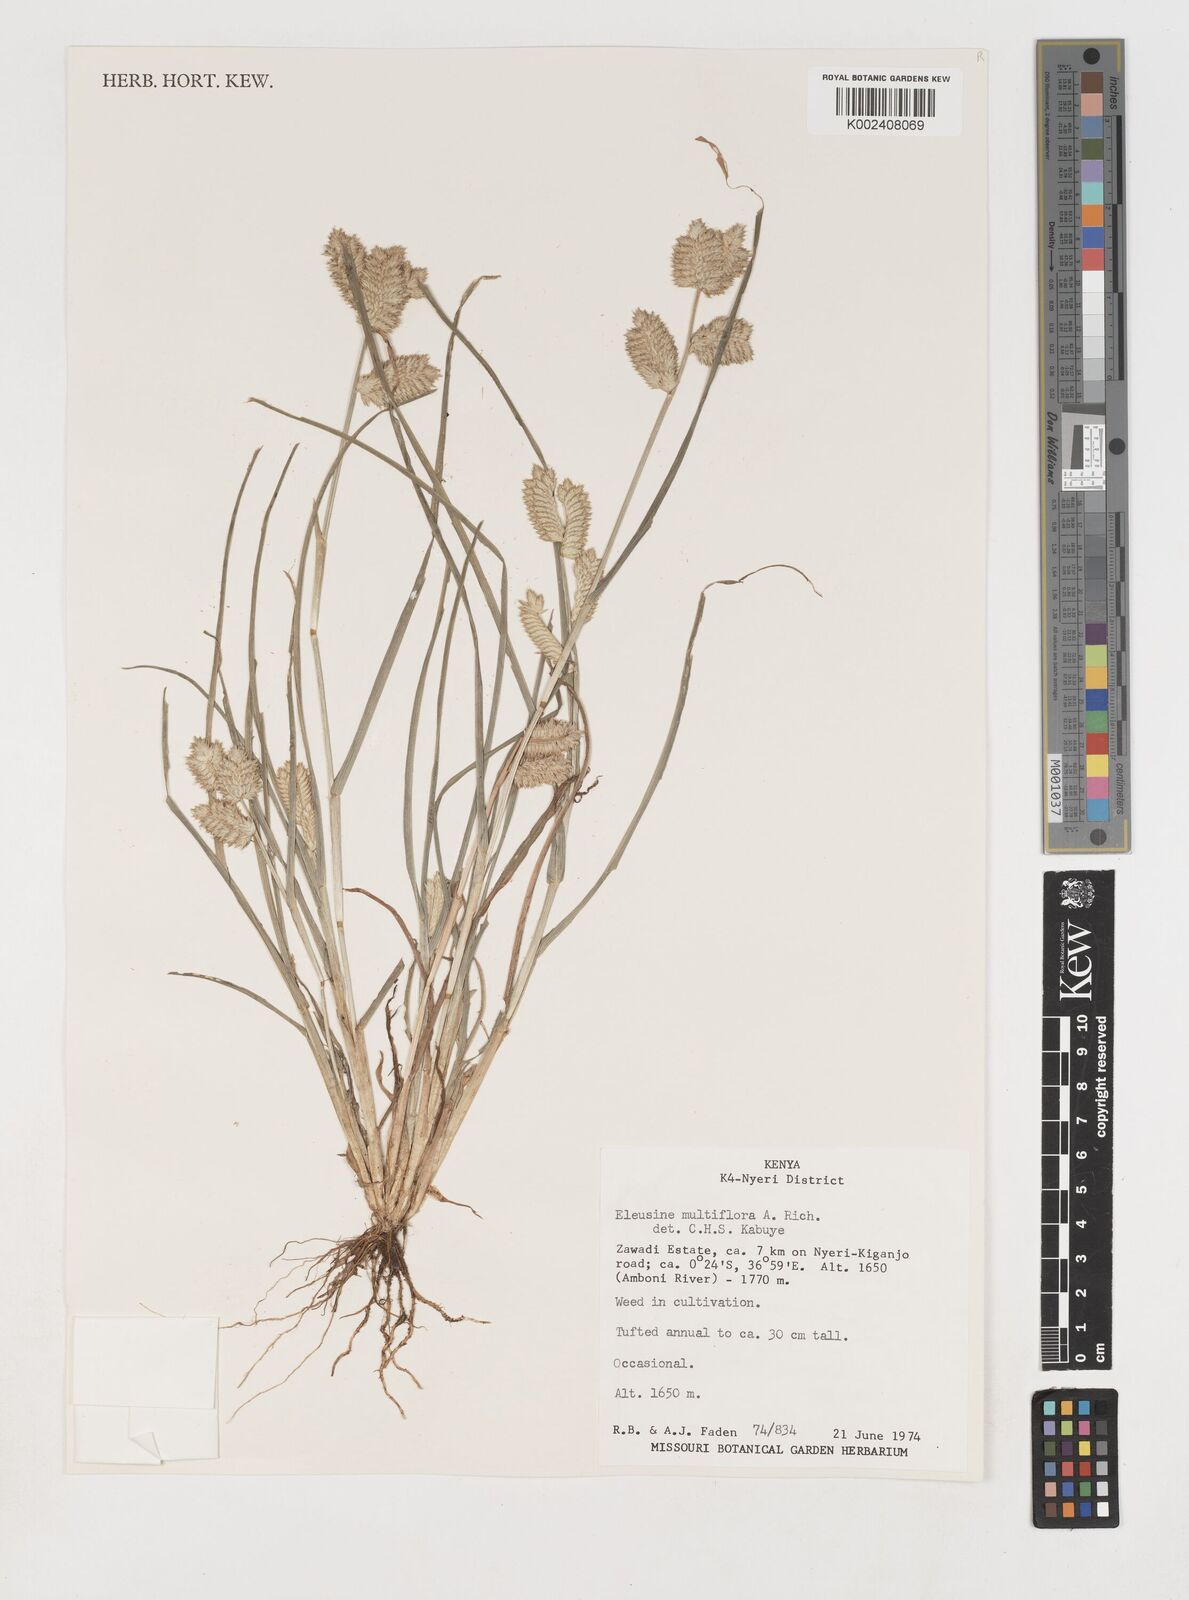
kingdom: Plantae
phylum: Tracheophyta
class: Liliopsida
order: Poales
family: Poaceae
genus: Eleusine
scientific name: Eleusine multiflora
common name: Fat-spiked yard-grass
